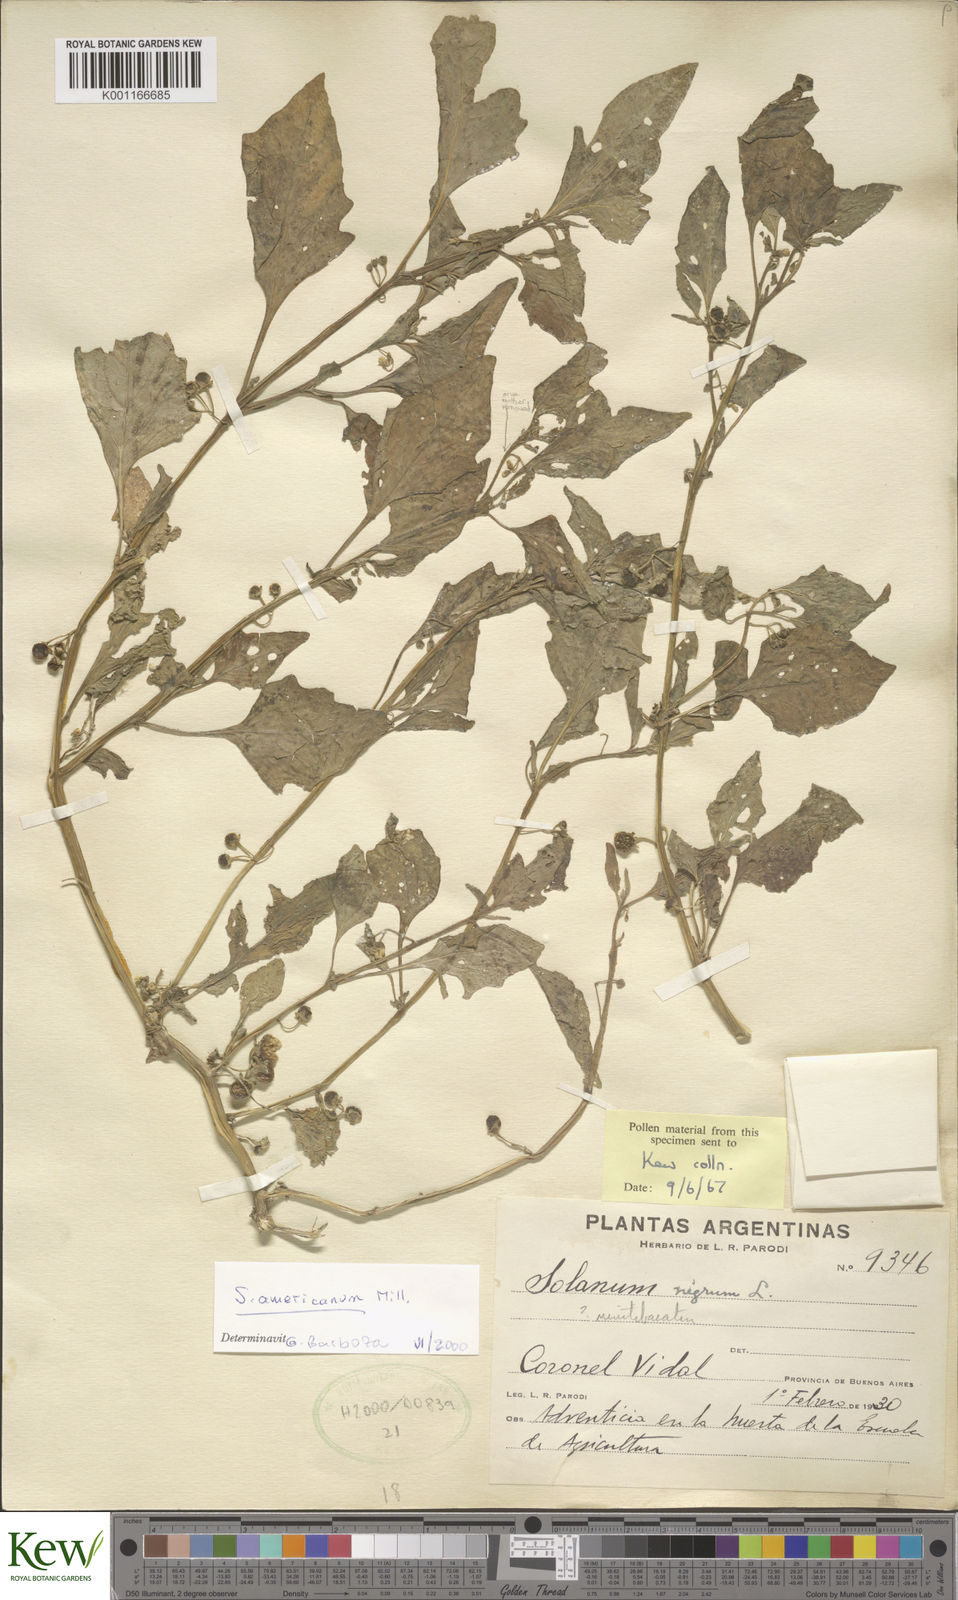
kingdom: Plantae
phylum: Tracheophyta
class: Magnoliopsida
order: Solanales
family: Solanaceae
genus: Solanum
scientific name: Solanum americanum
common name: American black nightshade
